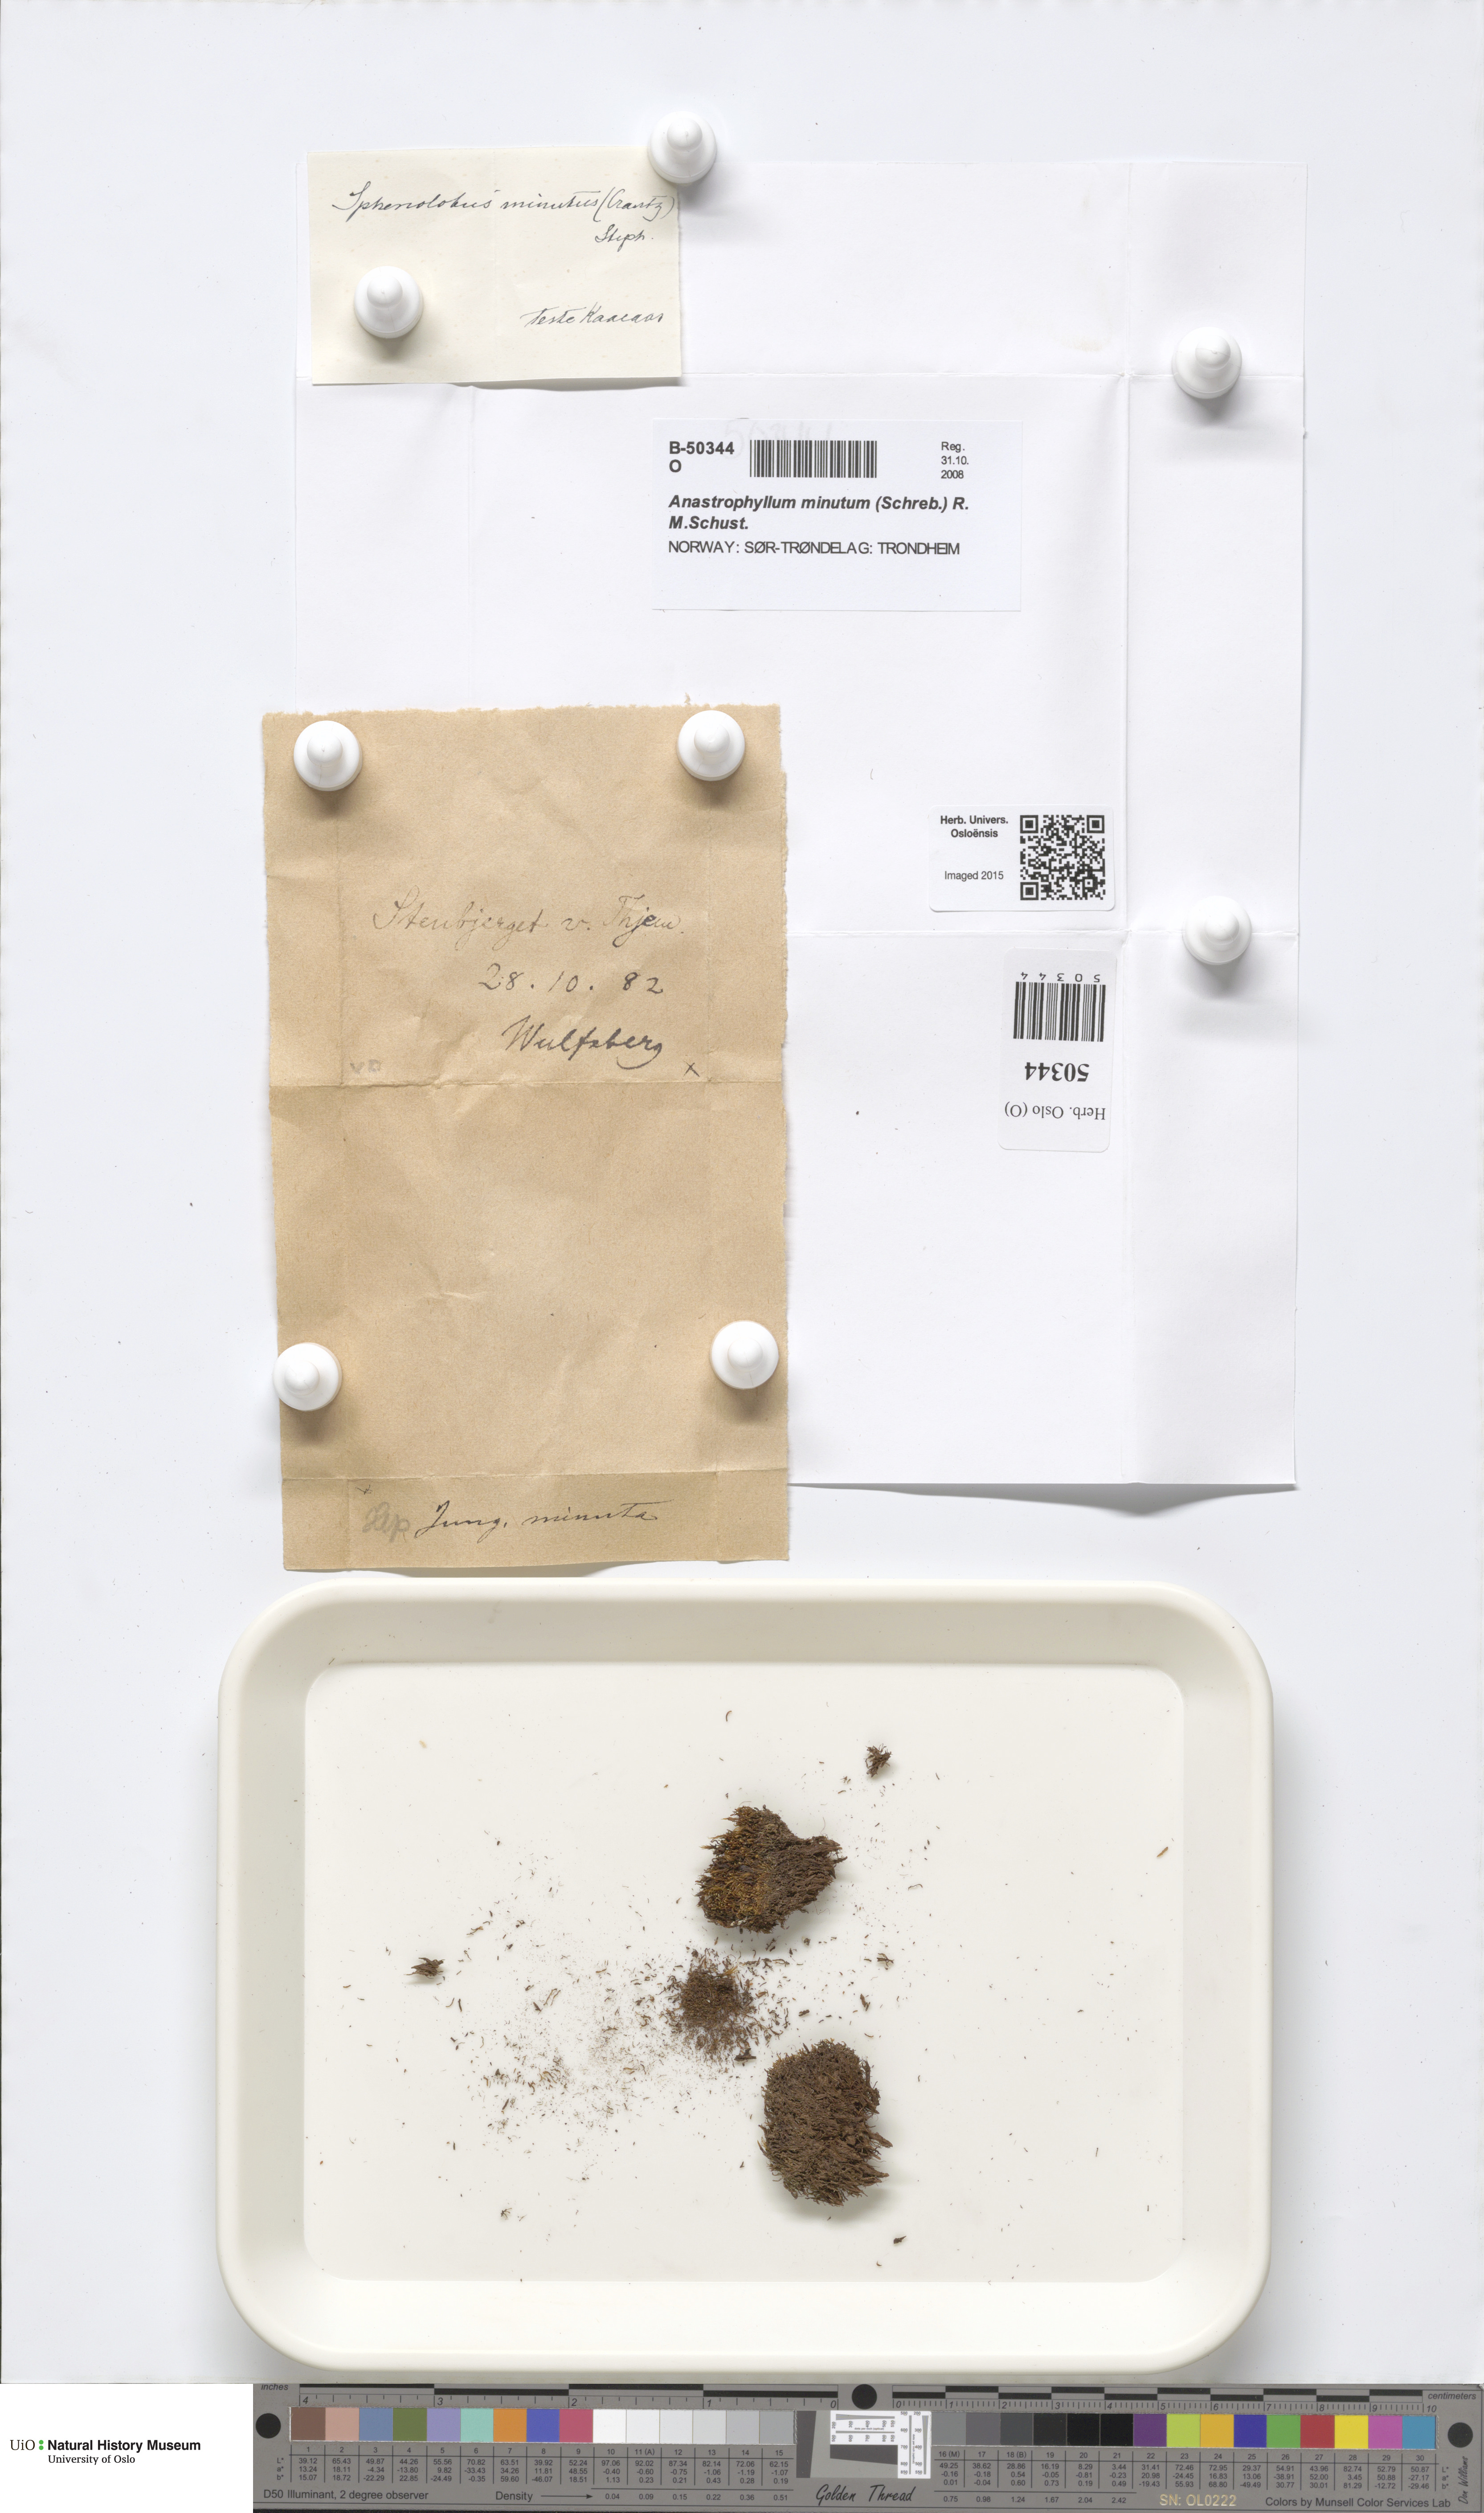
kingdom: Plantae
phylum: Marchantiophyta
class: Jungermanniopsida
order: Jungermanniales
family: Anastrophyllaceae
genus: Sphenolobus
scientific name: Sphenolobus minutus
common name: Comb notchwort
